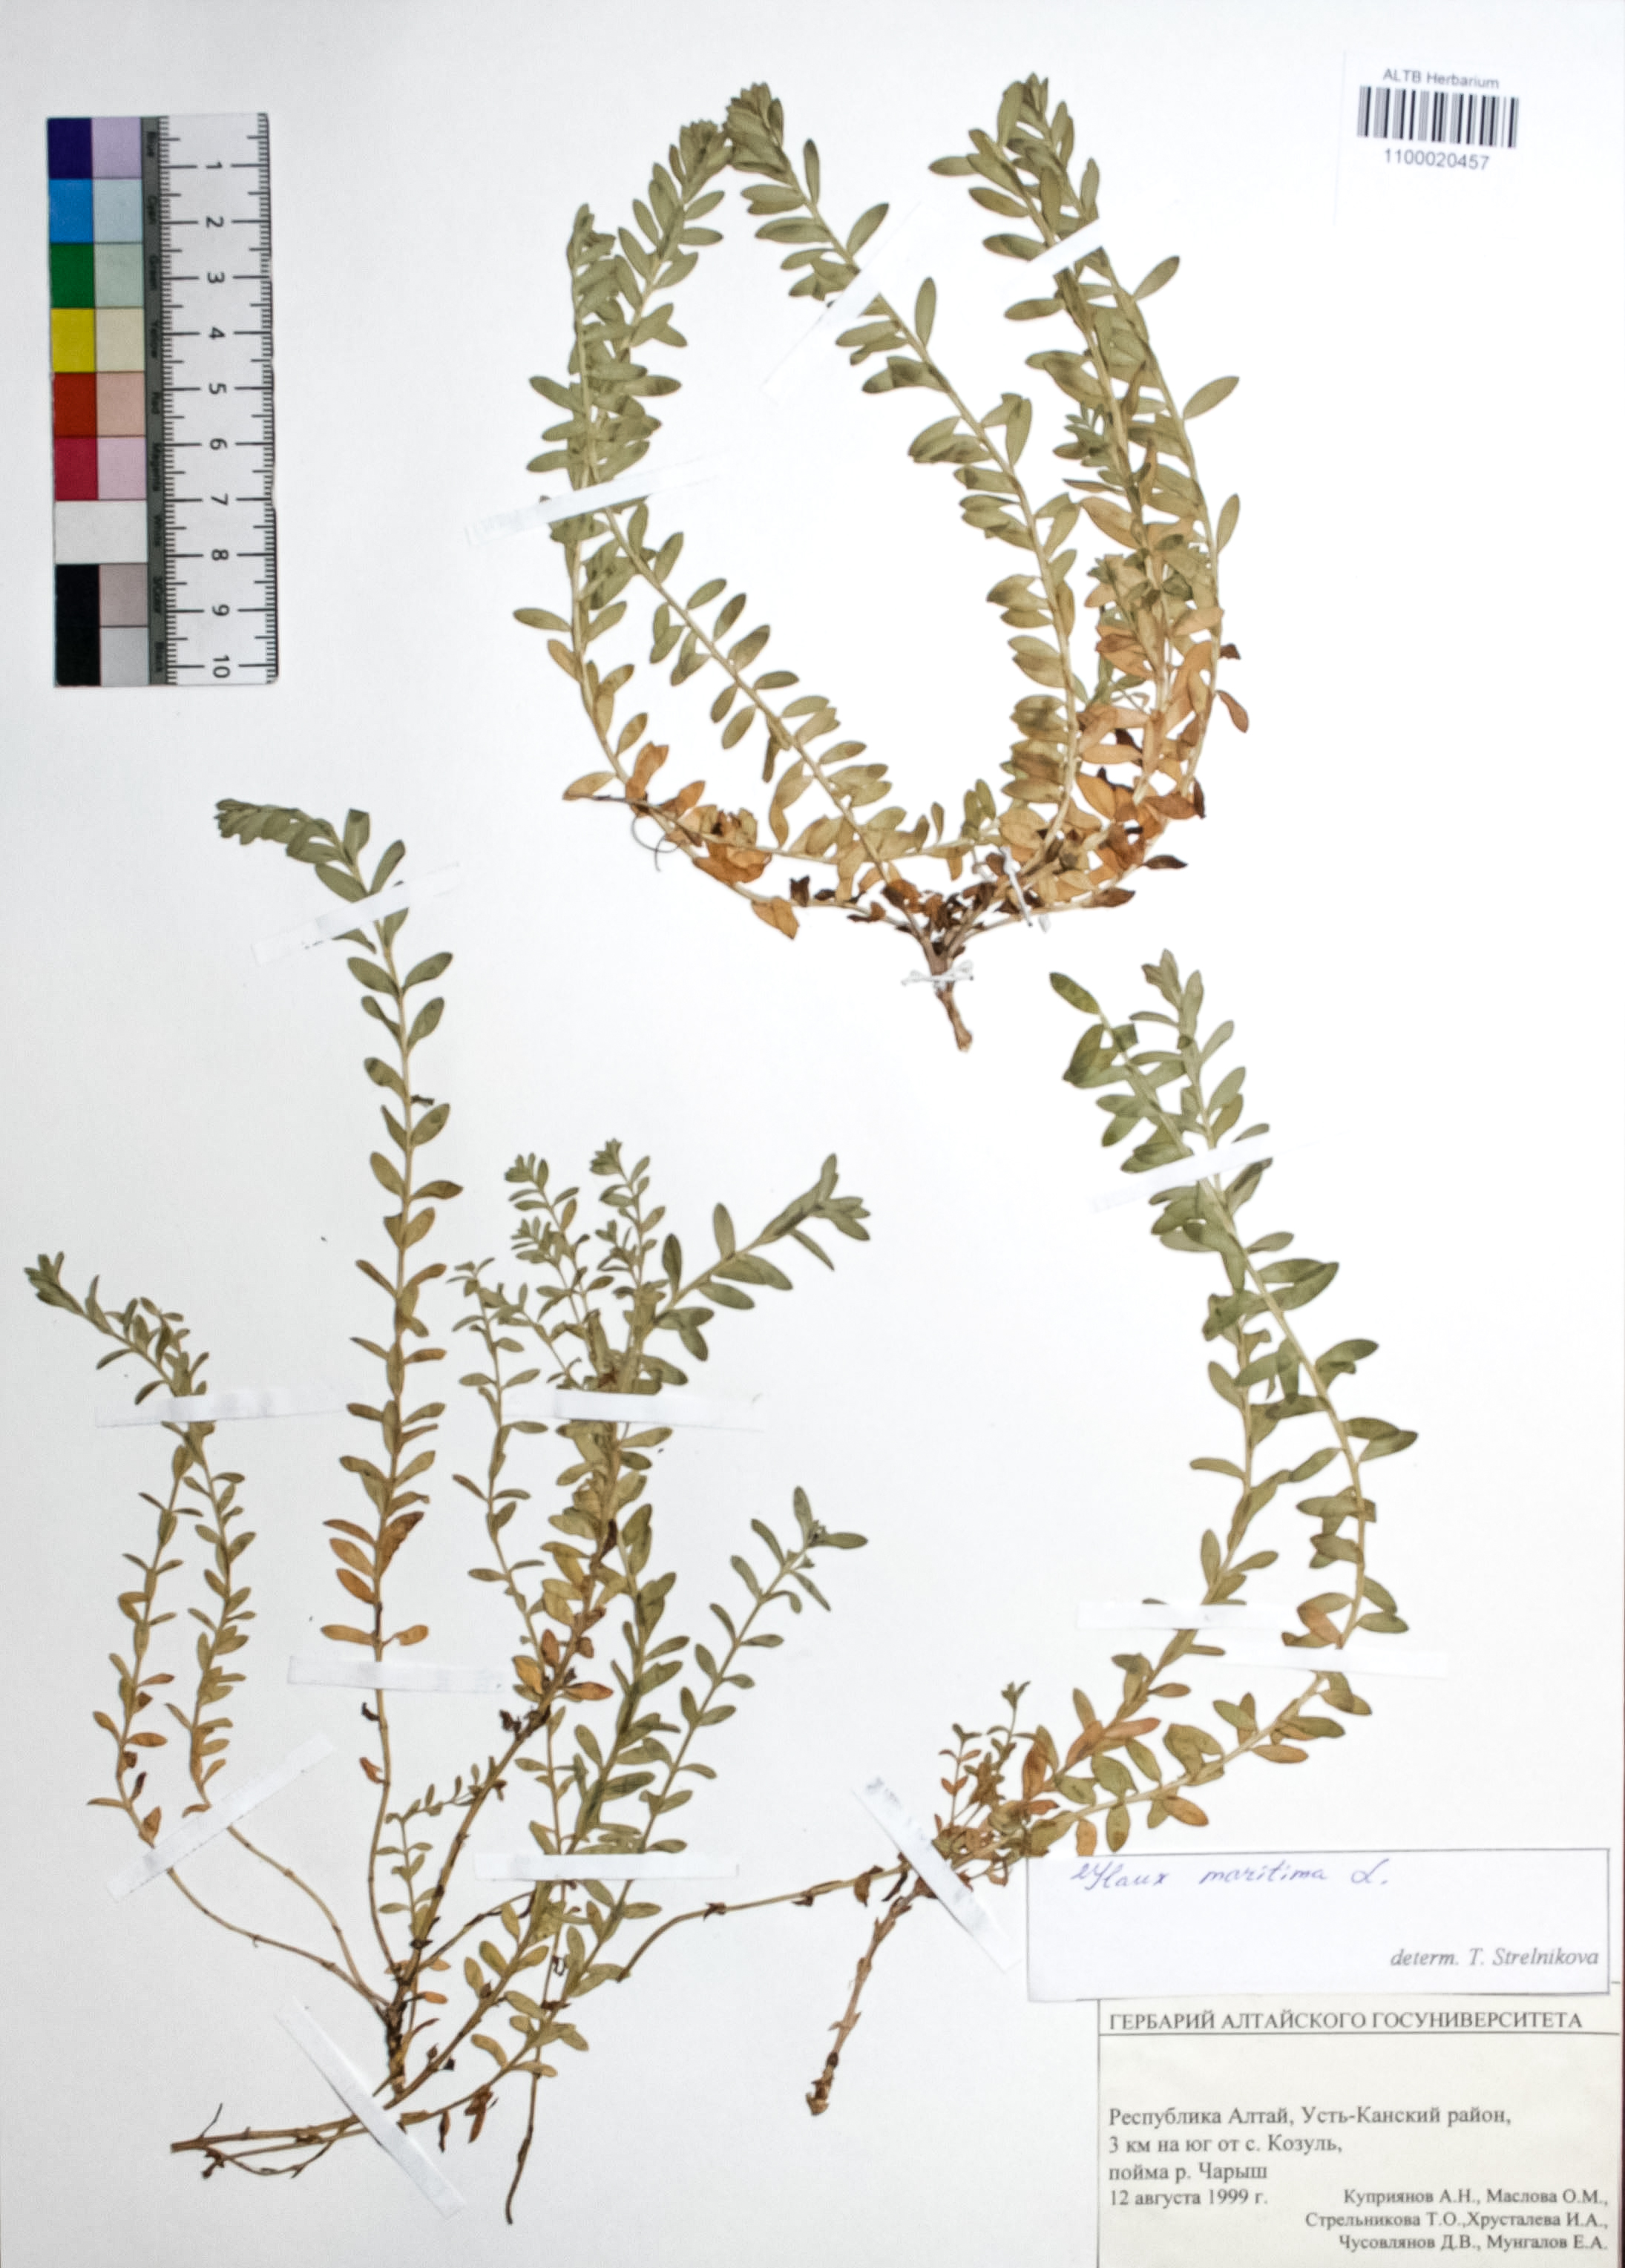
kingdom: Plantae
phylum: Tracheophyta
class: Magnoliopsida
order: Ericales
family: Primulaceae
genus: Lysimachia
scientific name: Lysimachia maritima
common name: Sea milkwort
